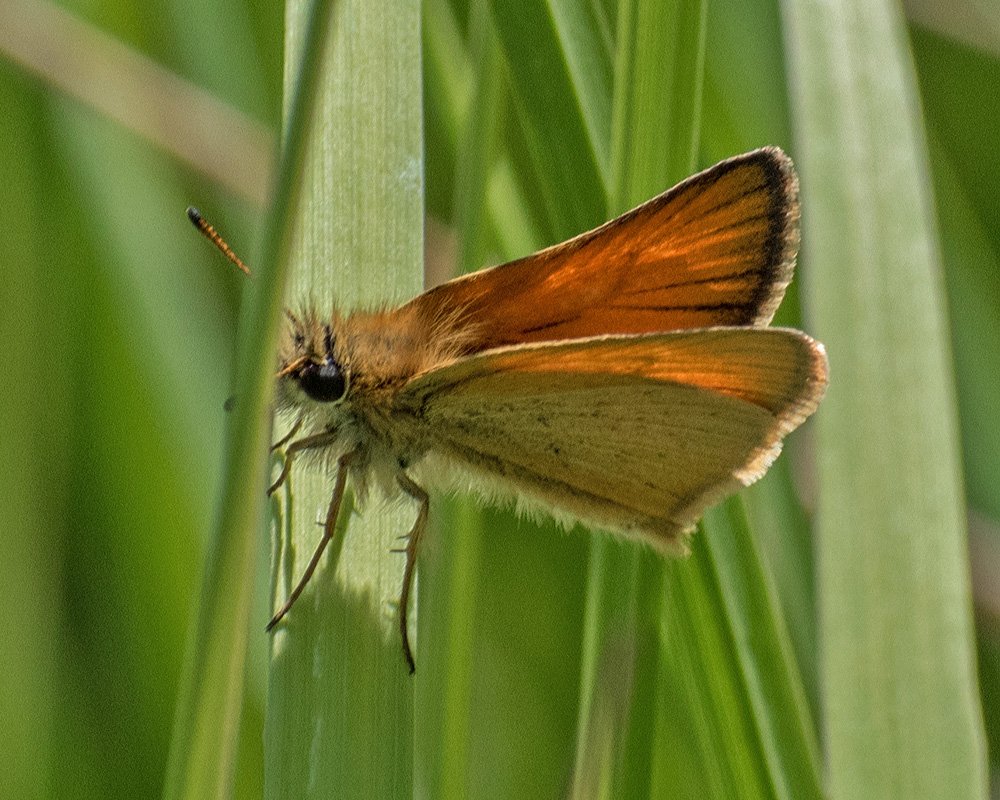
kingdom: Animalia
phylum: Arthropoda
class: Insecta
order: Lepidoptera
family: Hesperiidae
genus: Thymelicus
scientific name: Thymelicus lineola
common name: European Skipper
